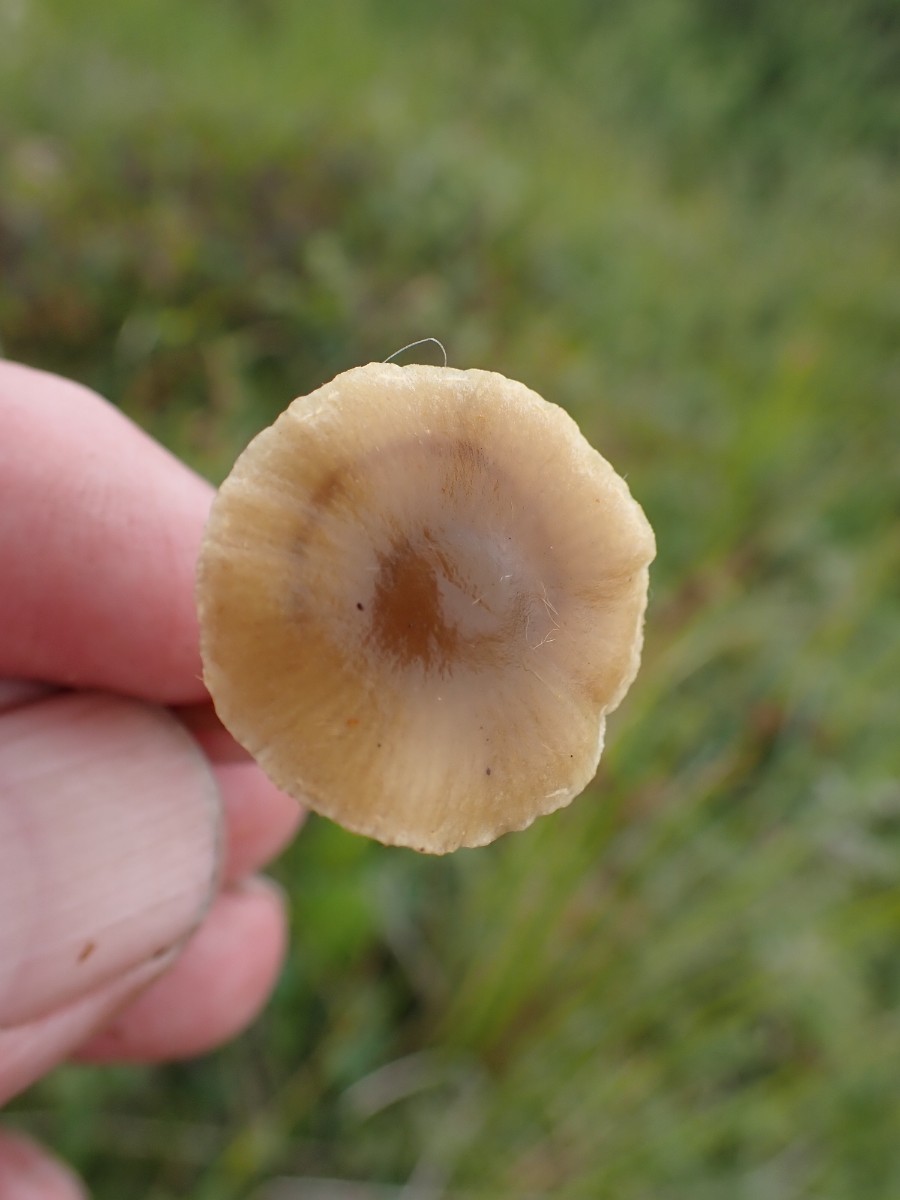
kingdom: Fungi
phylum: Basidiomycota
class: Agaricomycetes
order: Agaricales
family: Strophariaceae
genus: Hypholoma
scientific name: Hypholoma elongatum
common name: slank svovlhat
